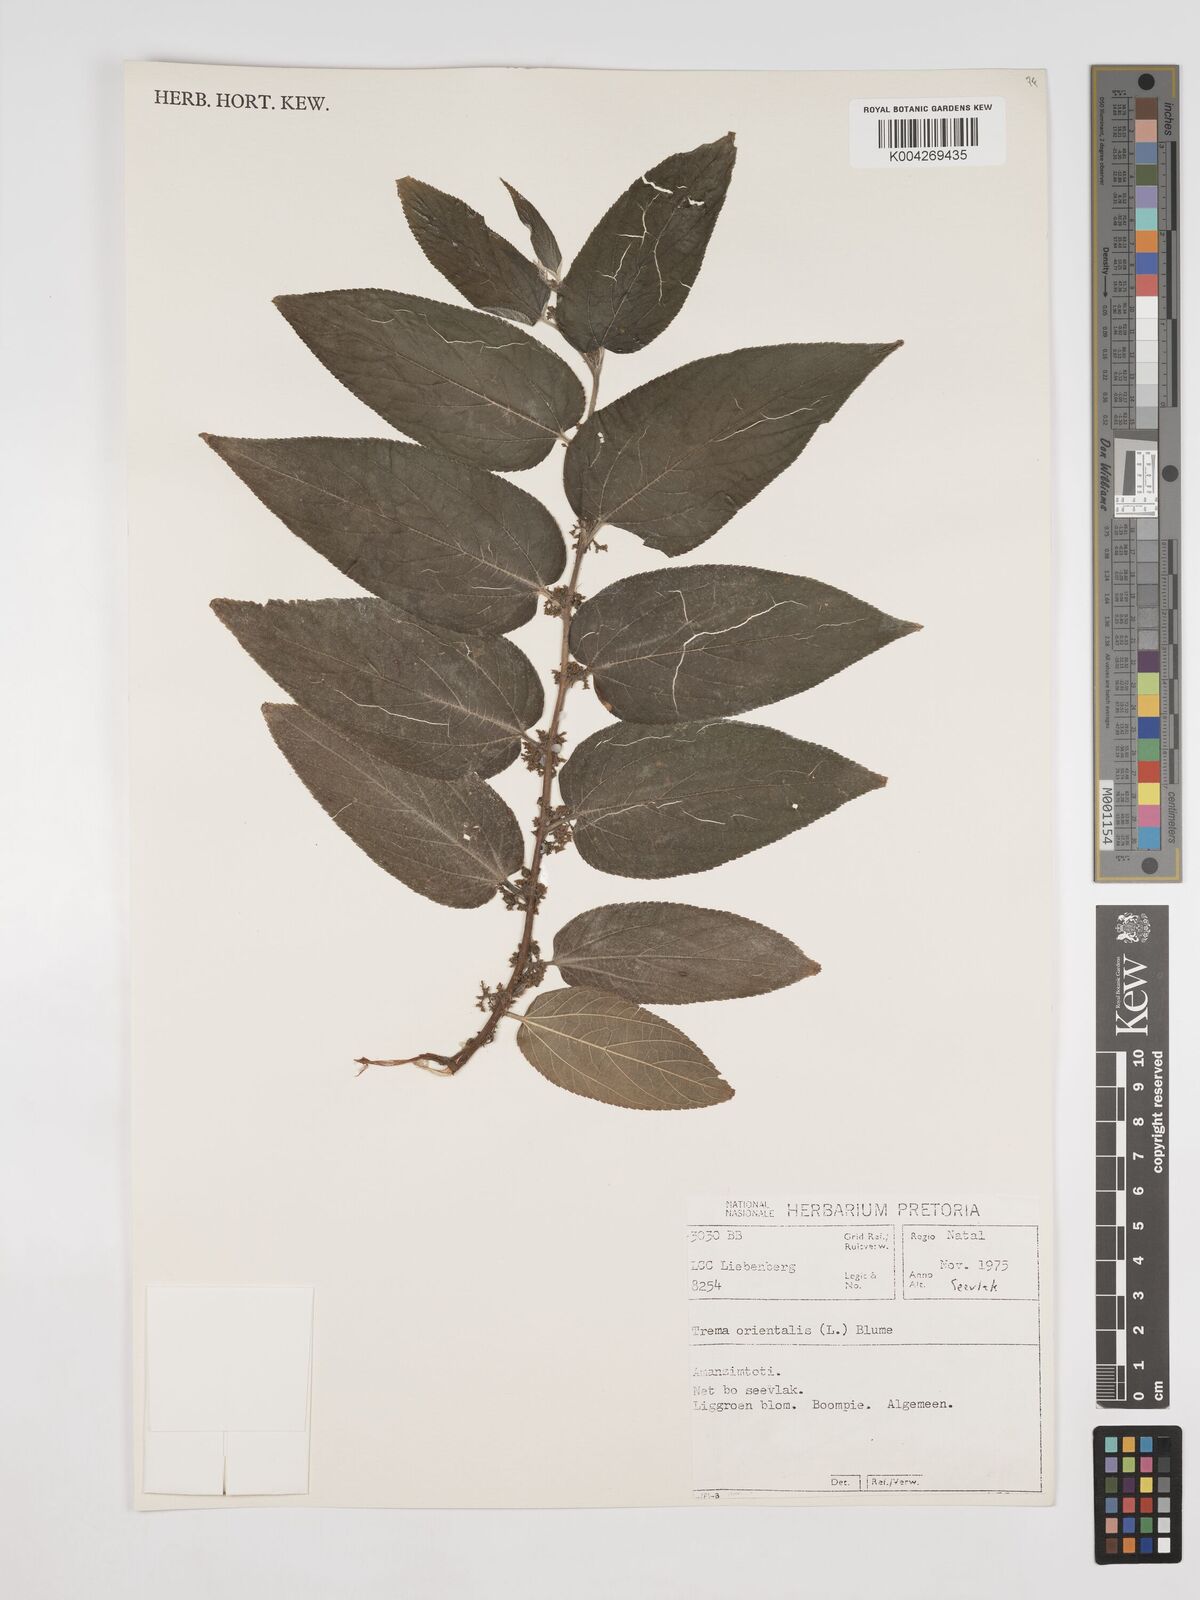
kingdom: Plantae
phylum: Tracheophyta
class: Magnoliopsida
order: Rosales
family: Cannabaceae
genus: Trema
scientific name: Trema orientale
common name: Indian charcoal tree
